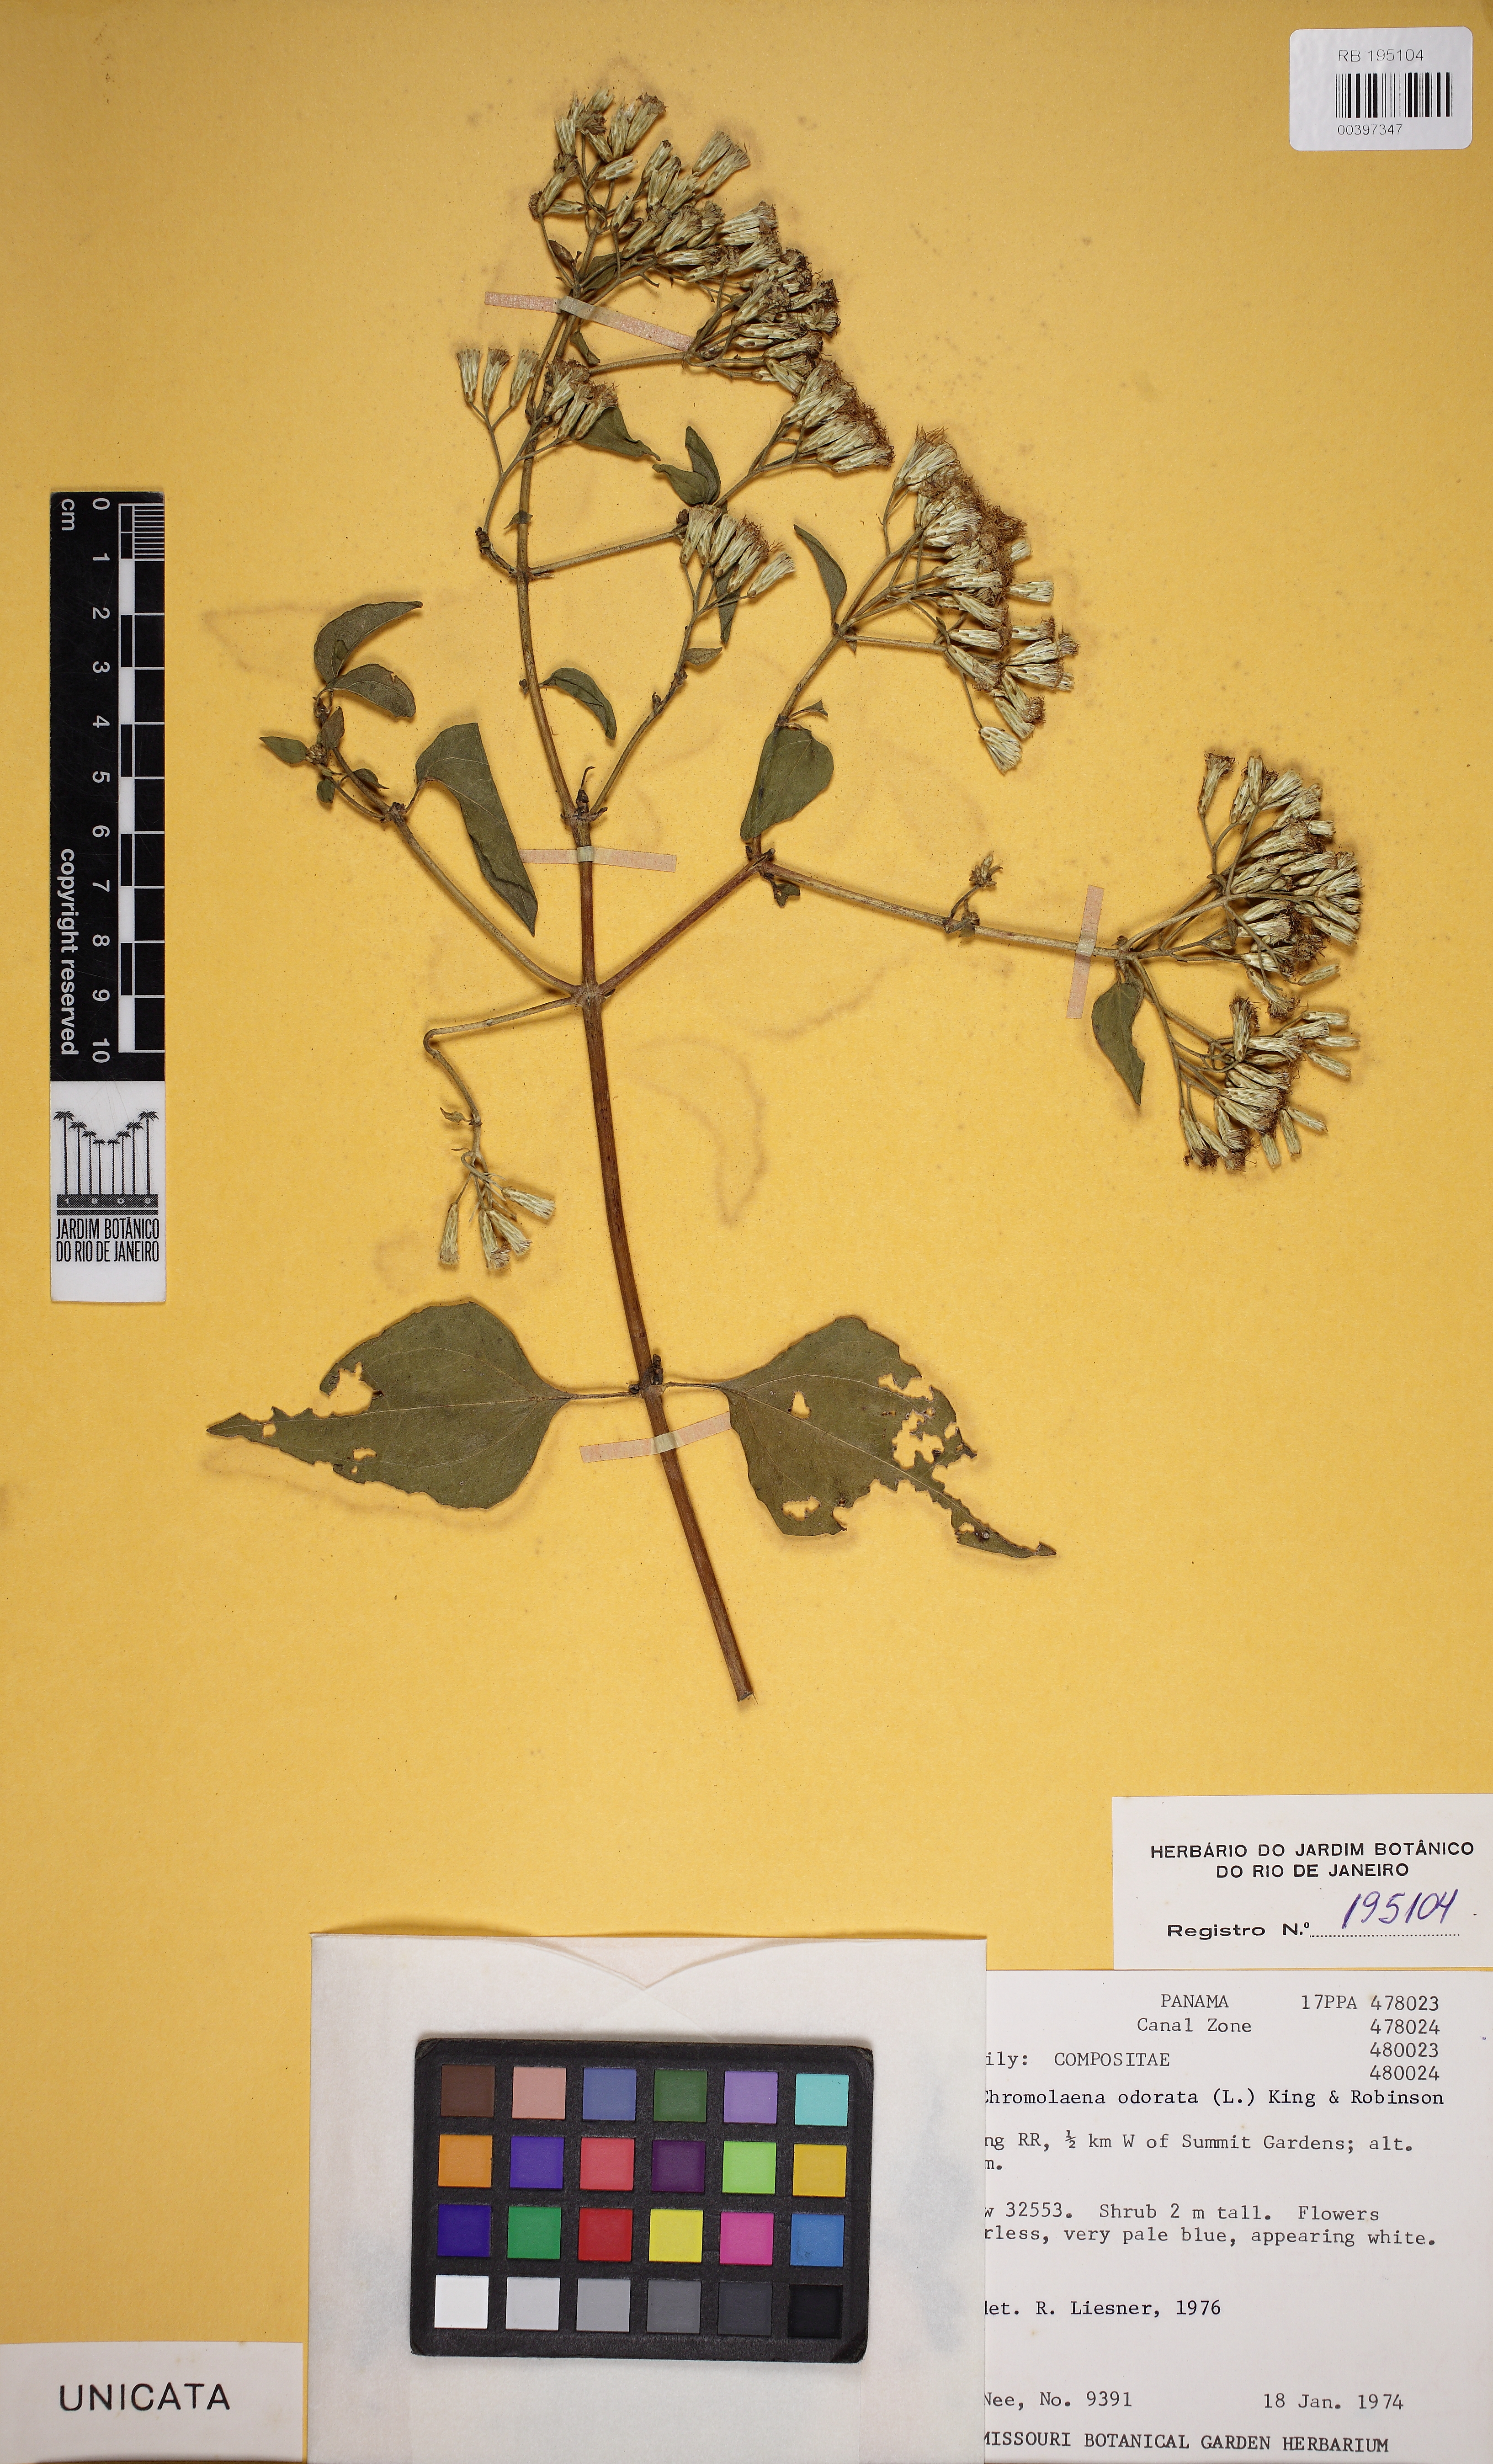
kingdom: Plantae
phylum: Tracheophyta
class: Magnoliopsida
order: Asterales
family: Asteraceae
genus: Chromolaena
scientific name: Chromolaena odorata
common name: Siamweed
